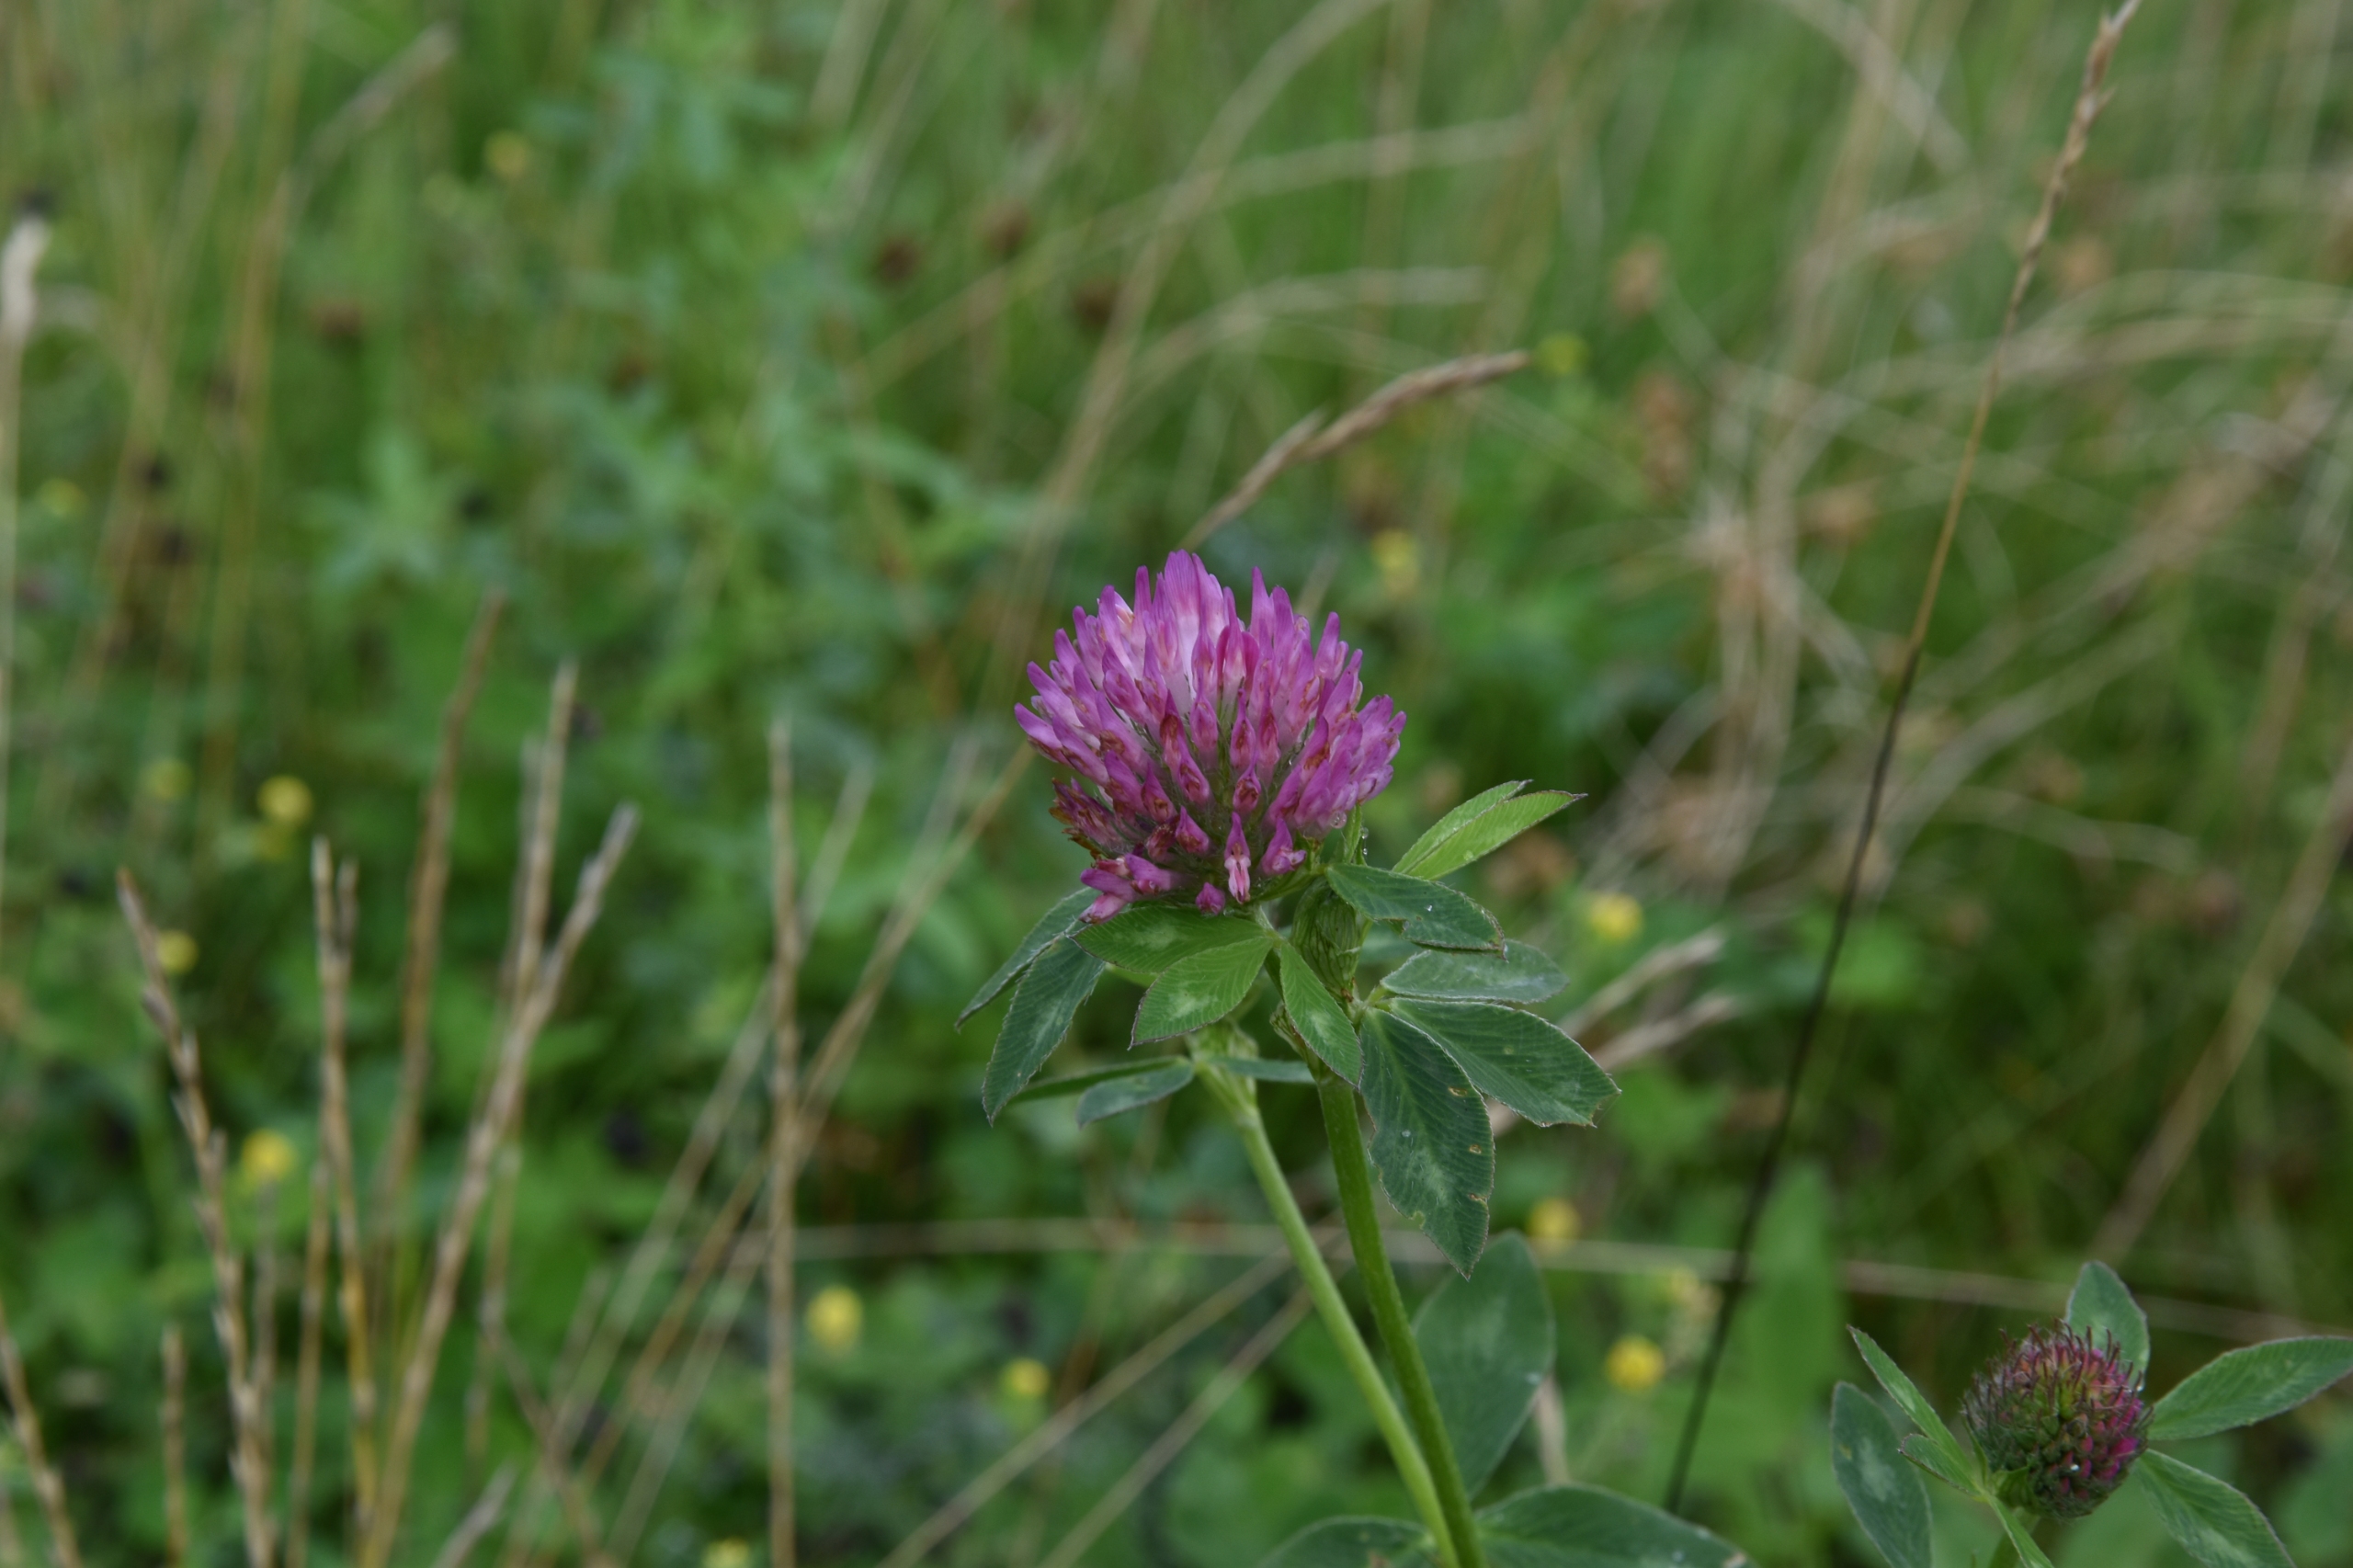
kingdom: Plantae
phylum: Tracheophyta
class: Magnoliopsida
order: Fabales
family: Fabaceae
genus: Trifolium
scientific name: Trifolium pratense
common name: Rød-kløver
